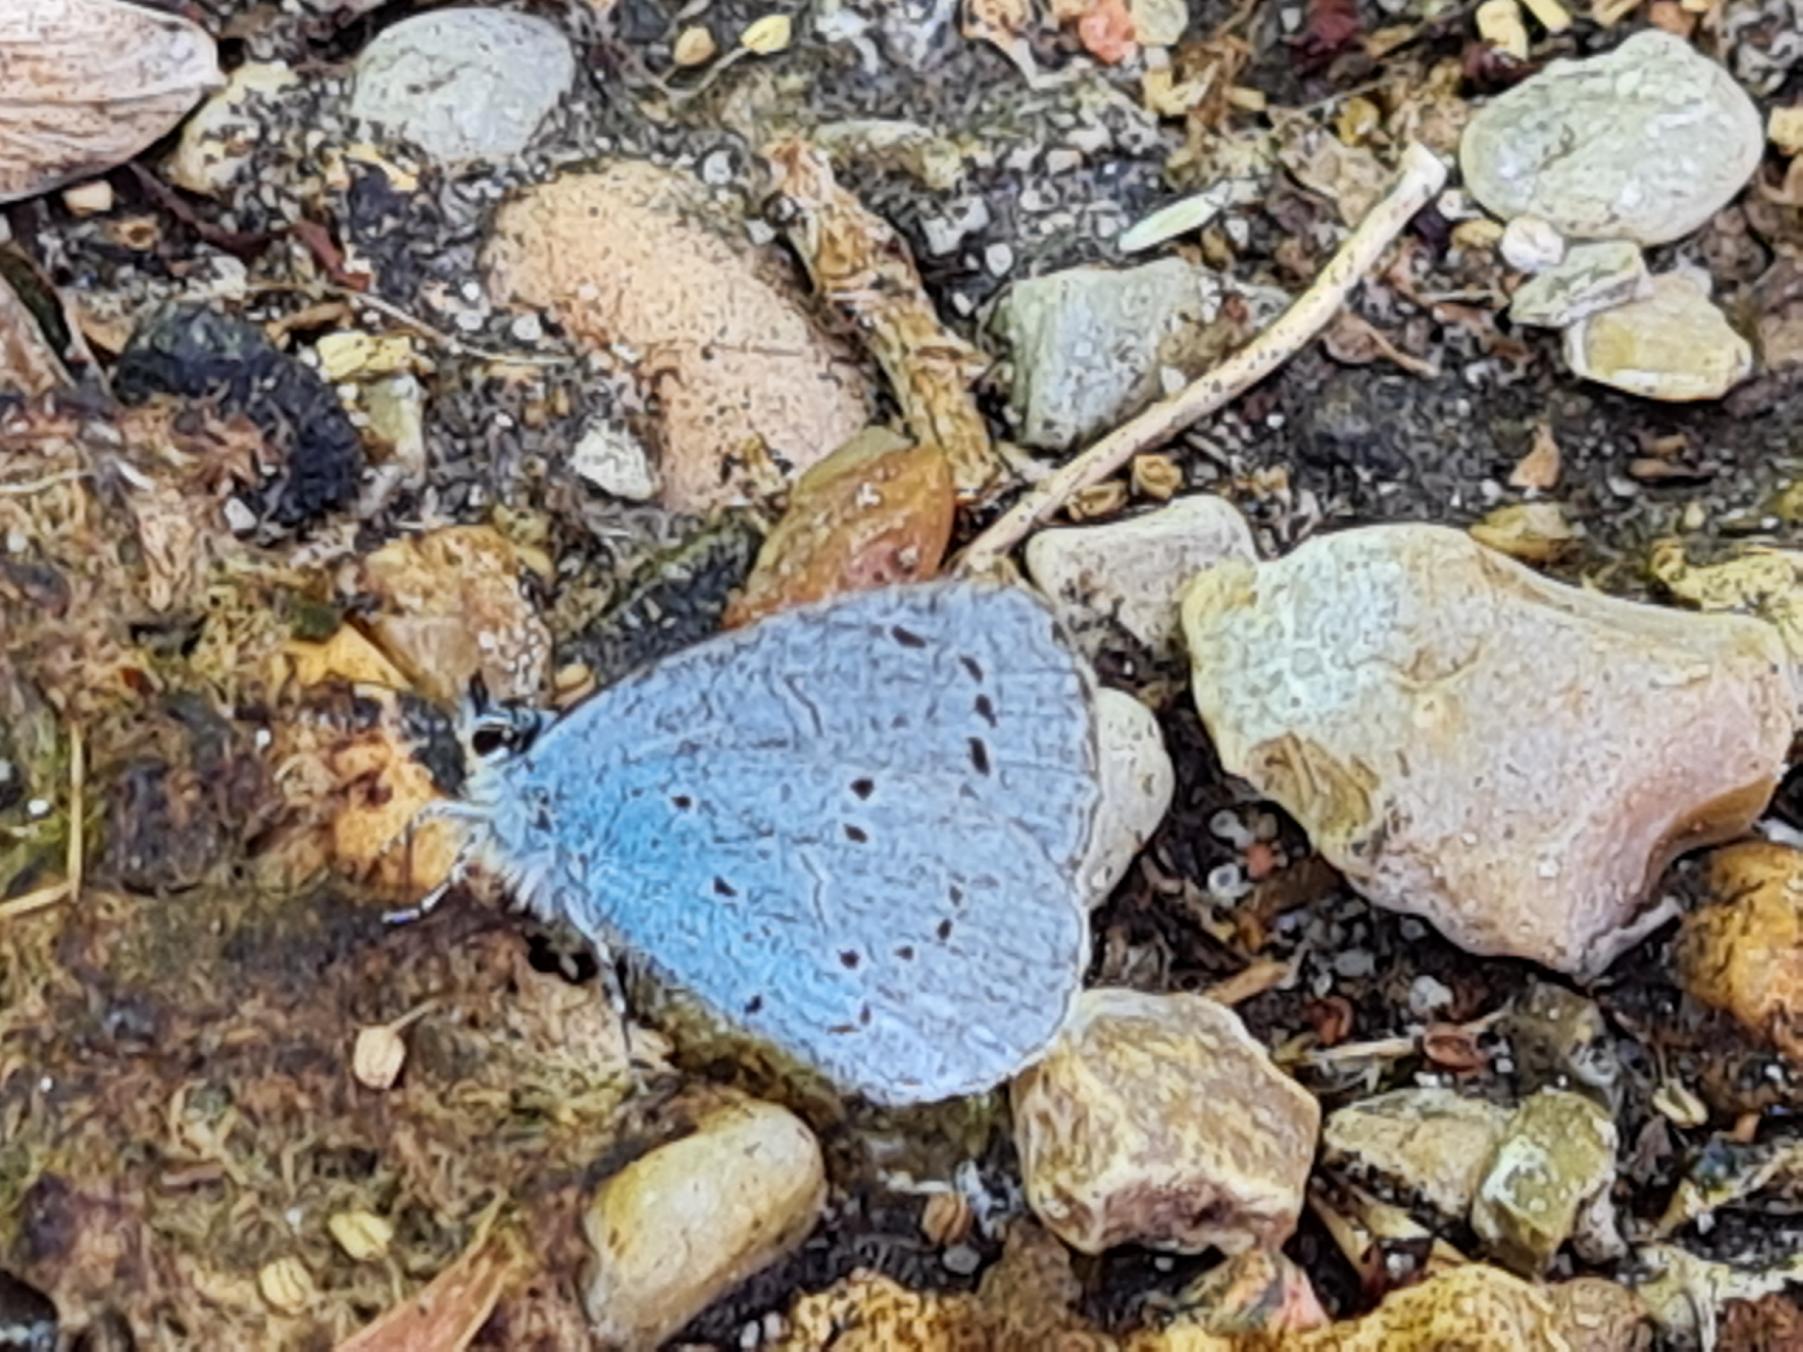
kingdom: Animalia
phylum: Arthropoda
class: Insecta
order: Lepidoptera
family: Lycaenidae
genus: Celastrina
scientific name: Celastrina argiolus
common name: Skovblåfugl
